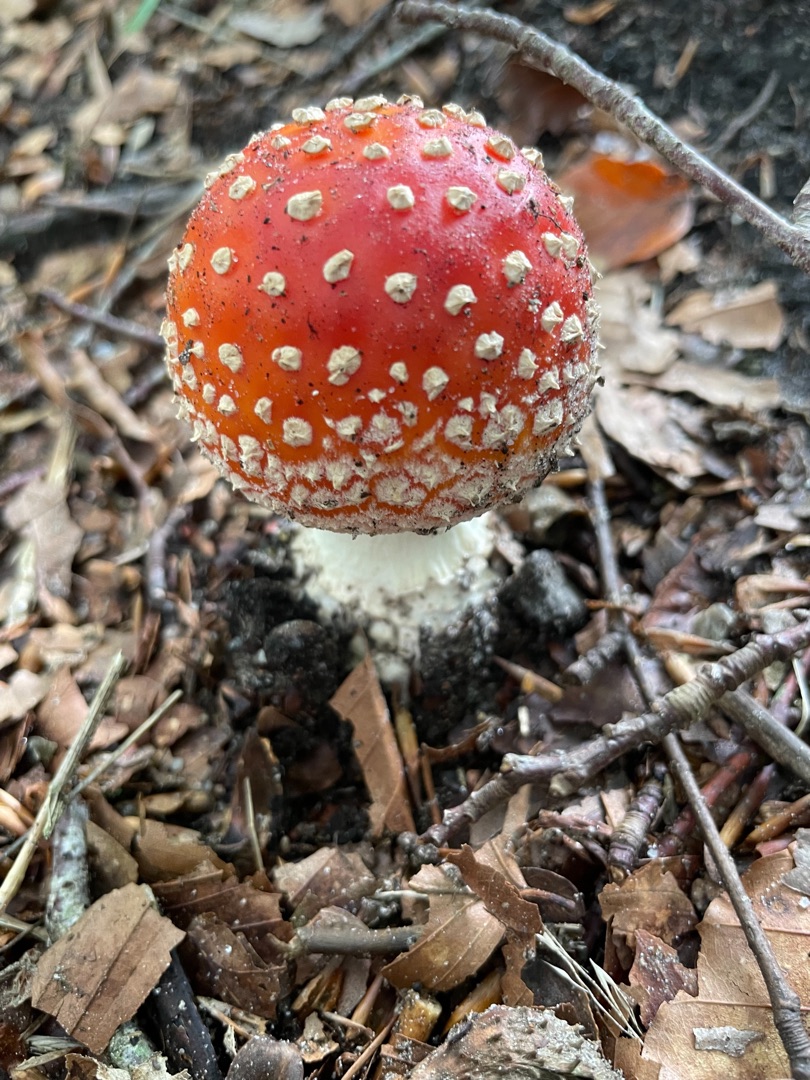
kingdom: Fungi
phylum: Basidiomycota
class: Agaricomycetes
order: Agaricales
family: Amanitaceae
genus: Amanita
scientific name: Amanita muscaria
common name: Rød fluesvamp
